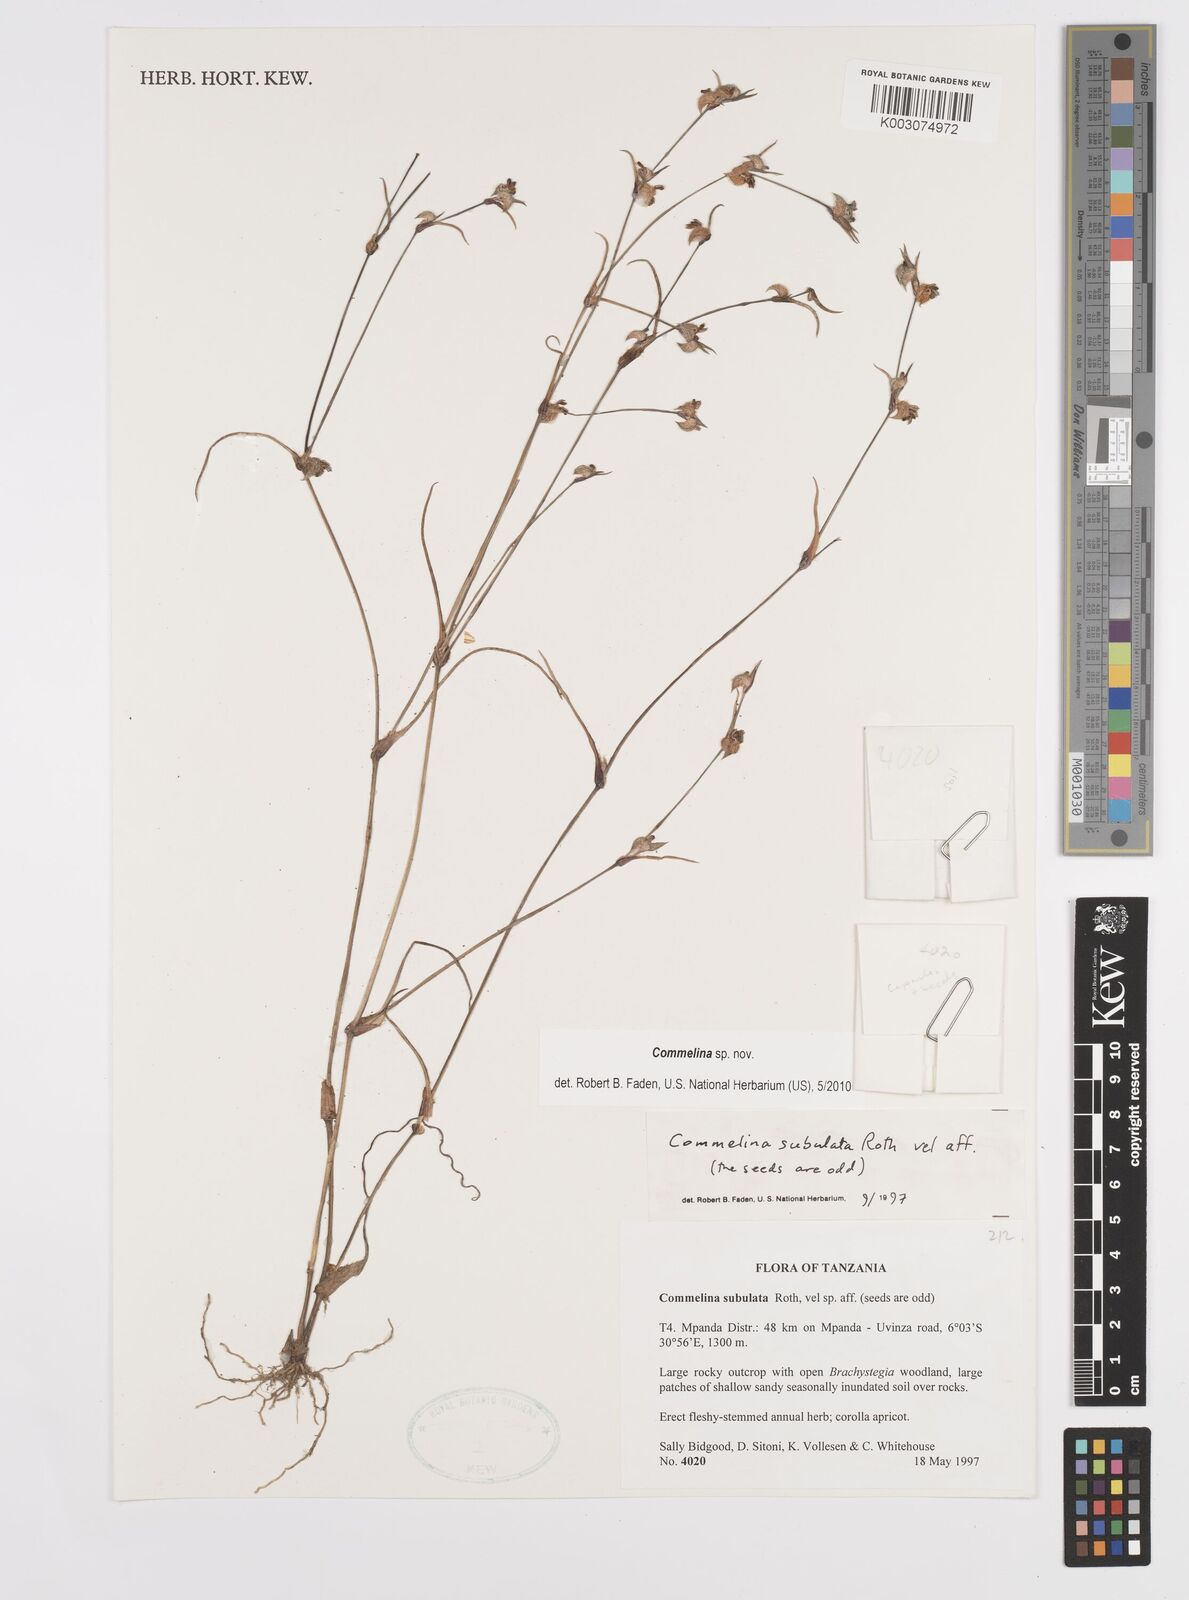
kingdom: Plantae
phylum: Tracheophyta
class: Liliopsida
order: Commelinales
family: Commelinaceae
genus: Commelina
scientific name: Commelina
